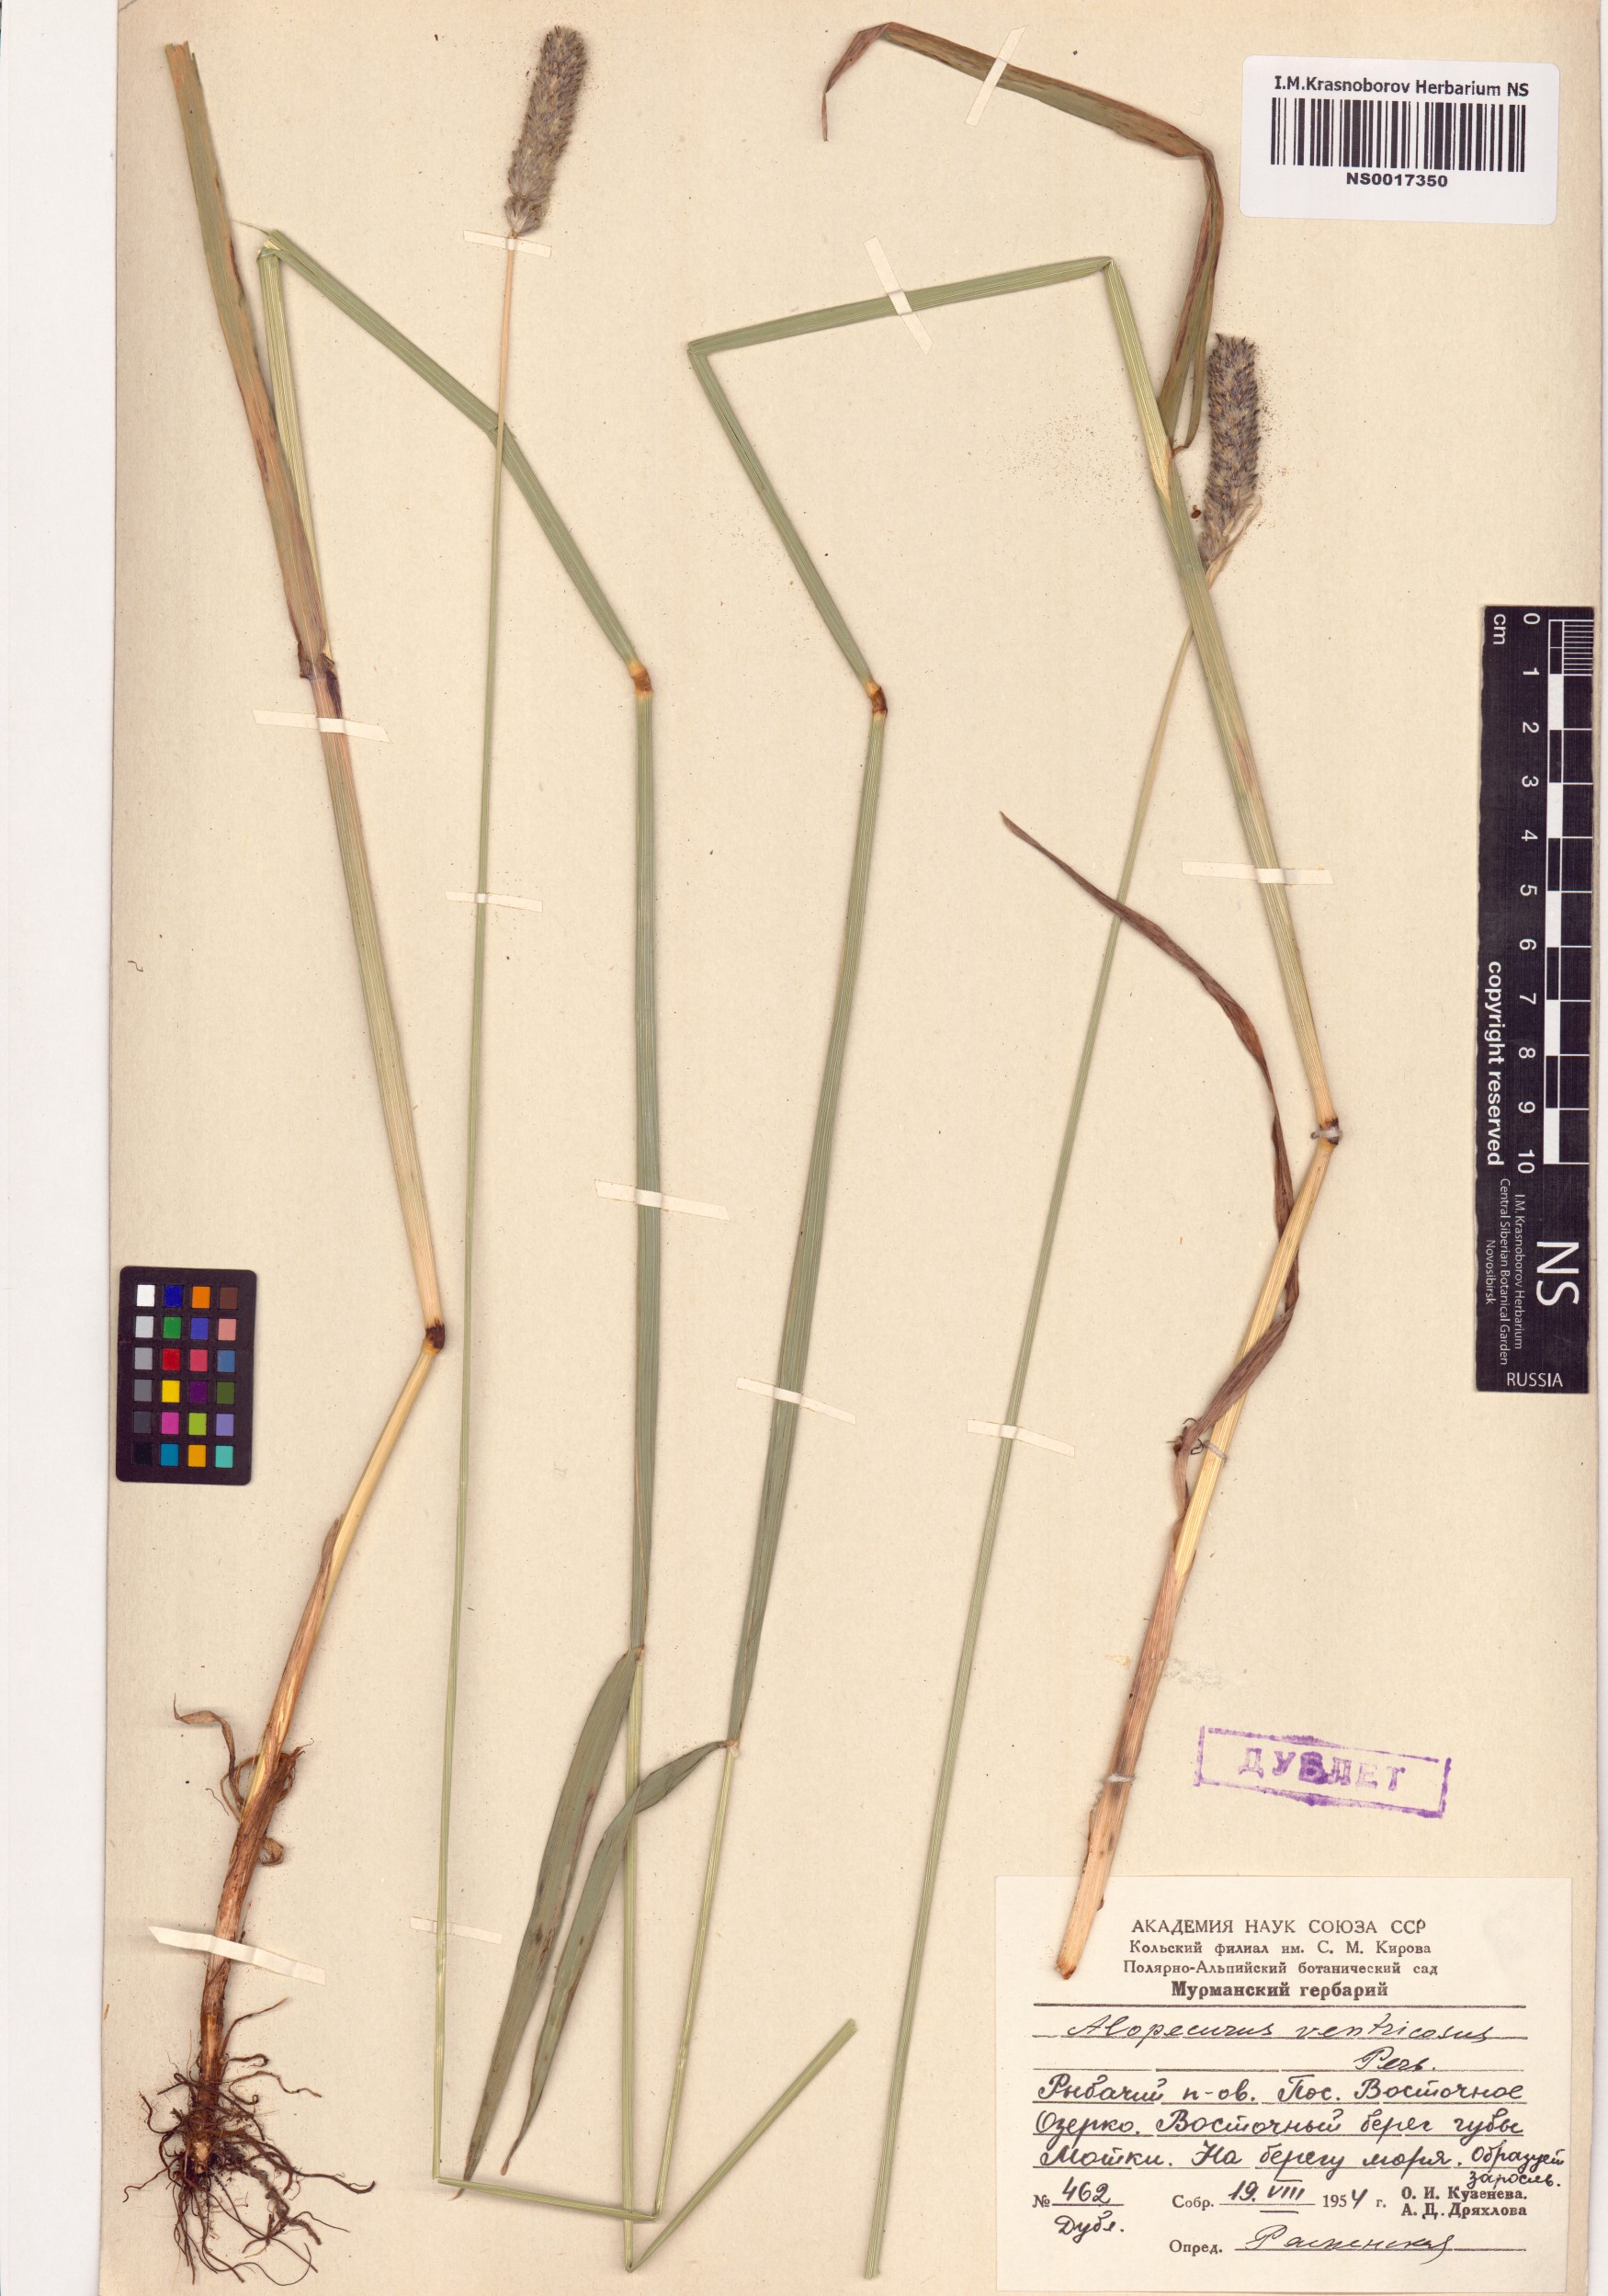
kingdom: Plantae
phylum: Tracheophyta
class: Liliopsida
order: Poales
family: Poaceae
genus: Alopecurus
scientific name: Alopecurus arundinaceus
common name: Creeping meadow foxtail
